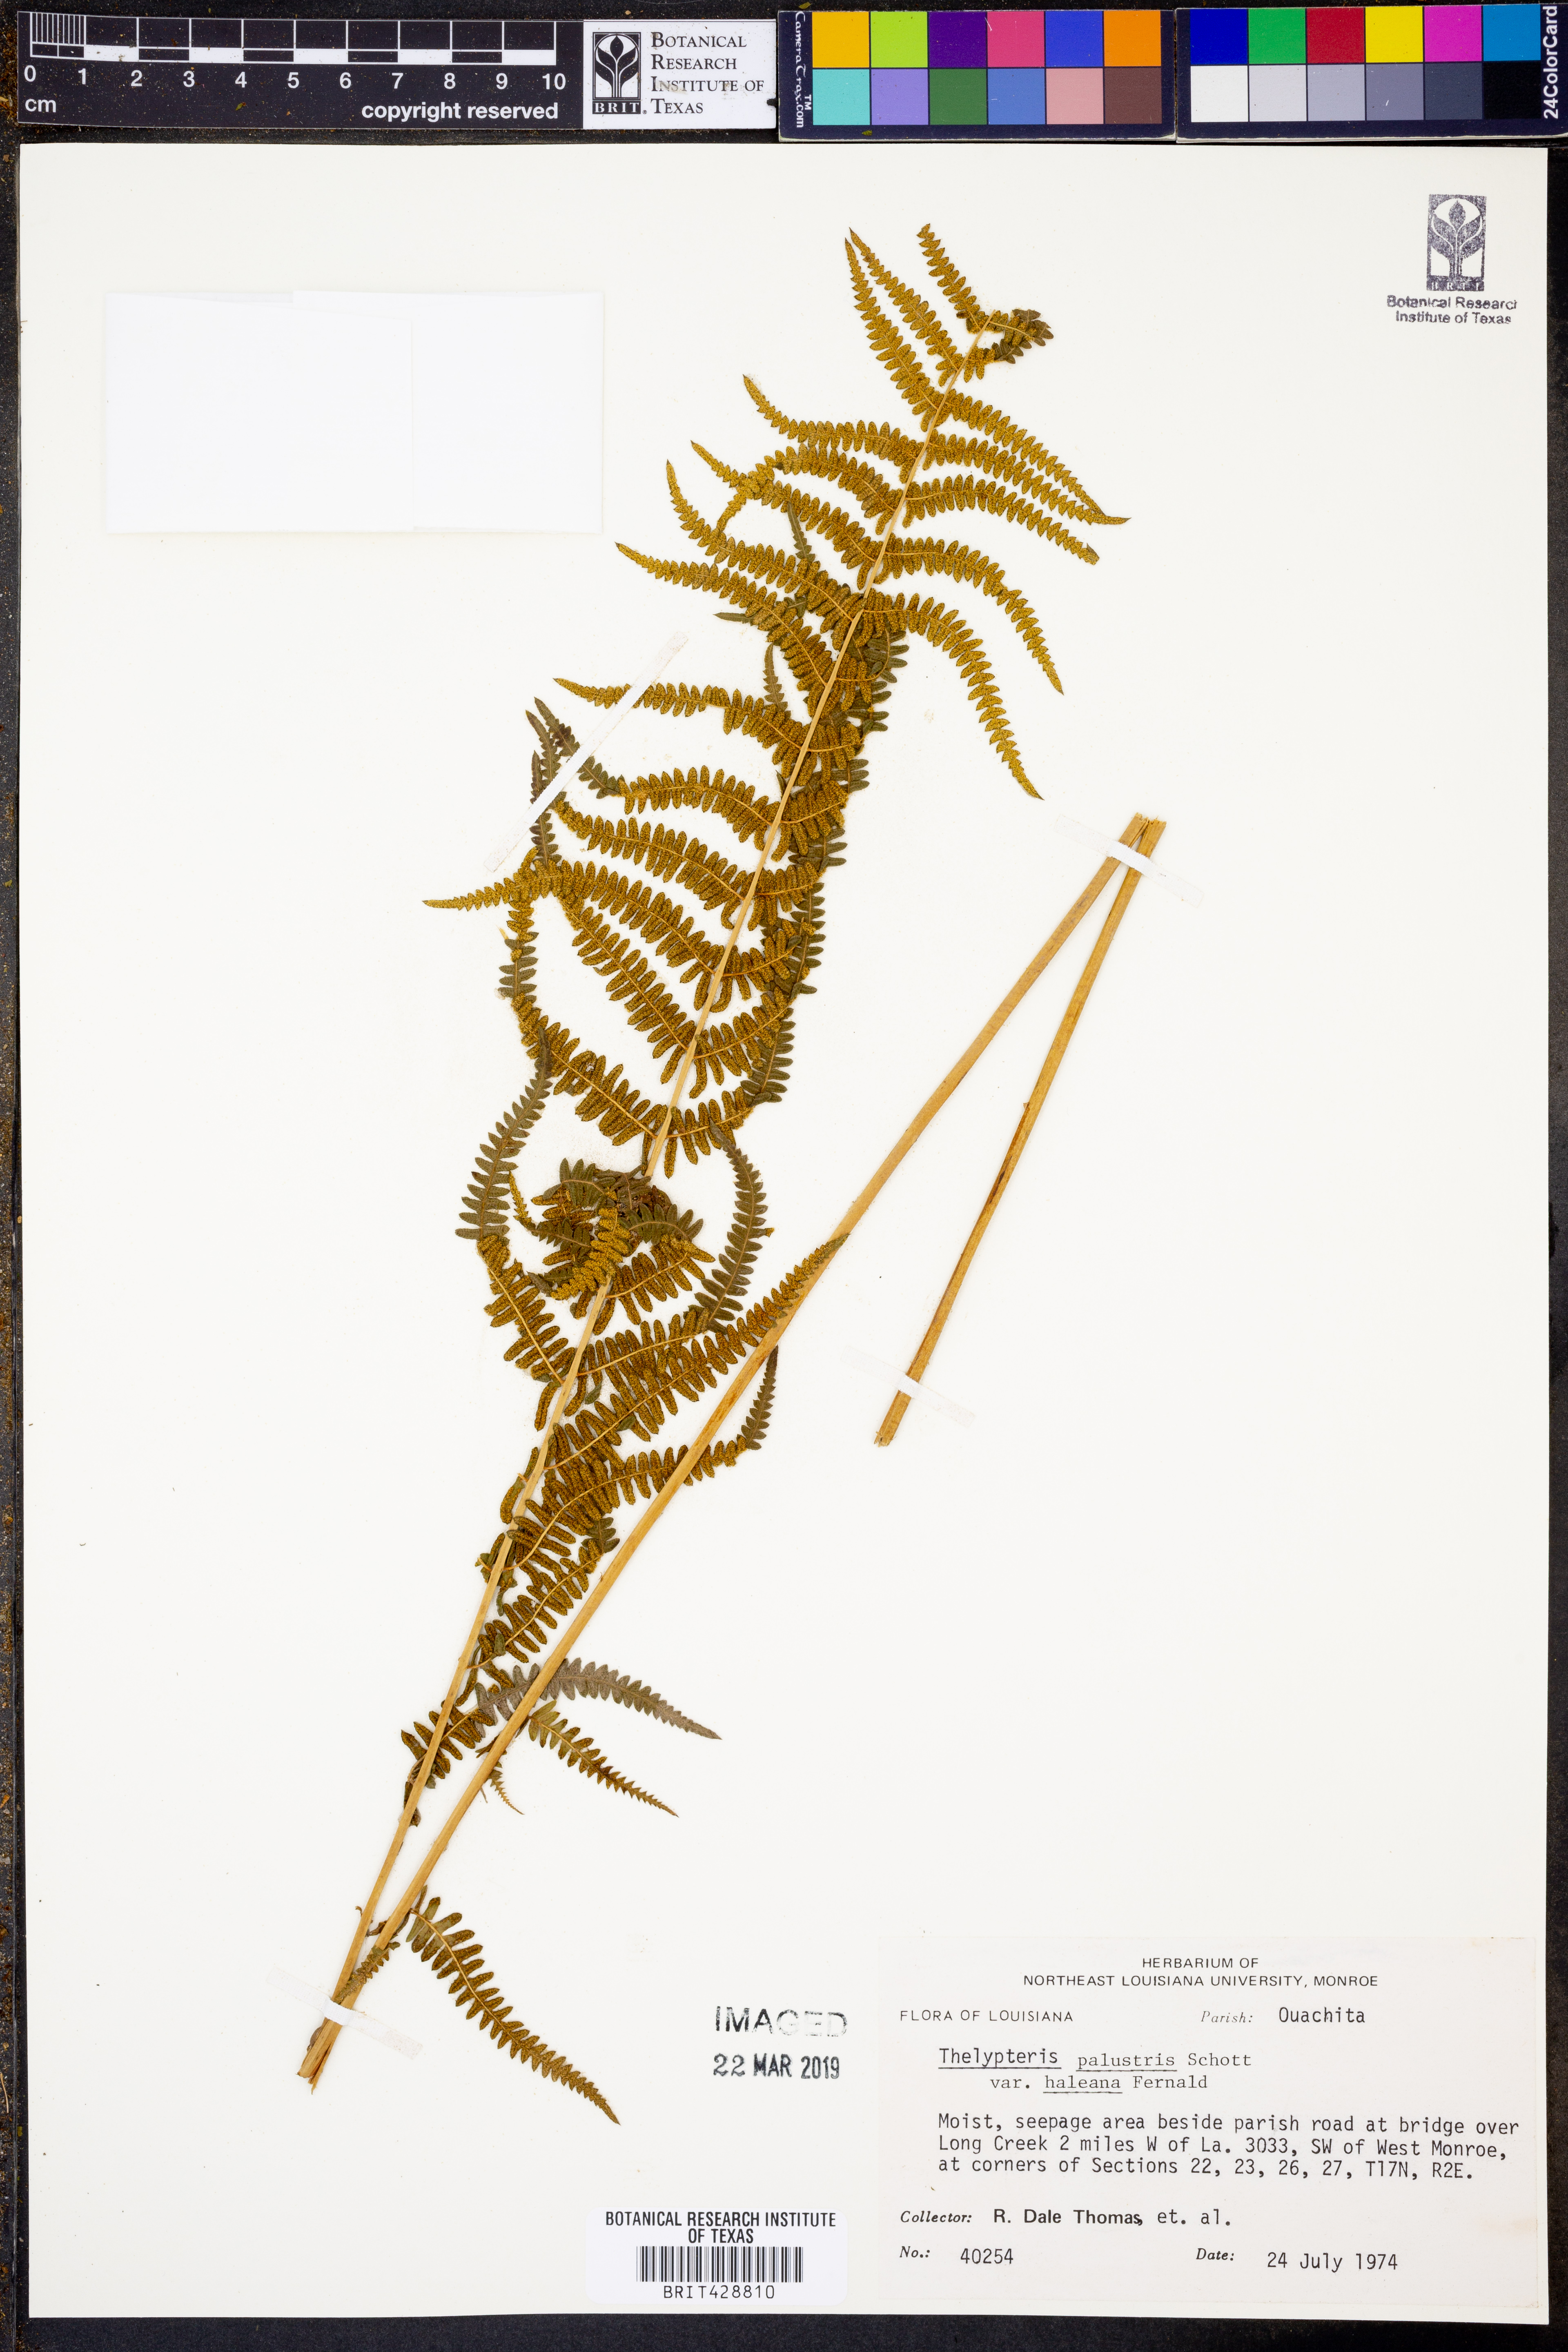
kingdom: Plantae
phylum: Tracheophyta
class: Polypodiopsida
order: Polypodiales
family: Thelypteridaceae
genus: Thelypteris
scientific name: Thelypteris palustris
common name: Marsh fern
